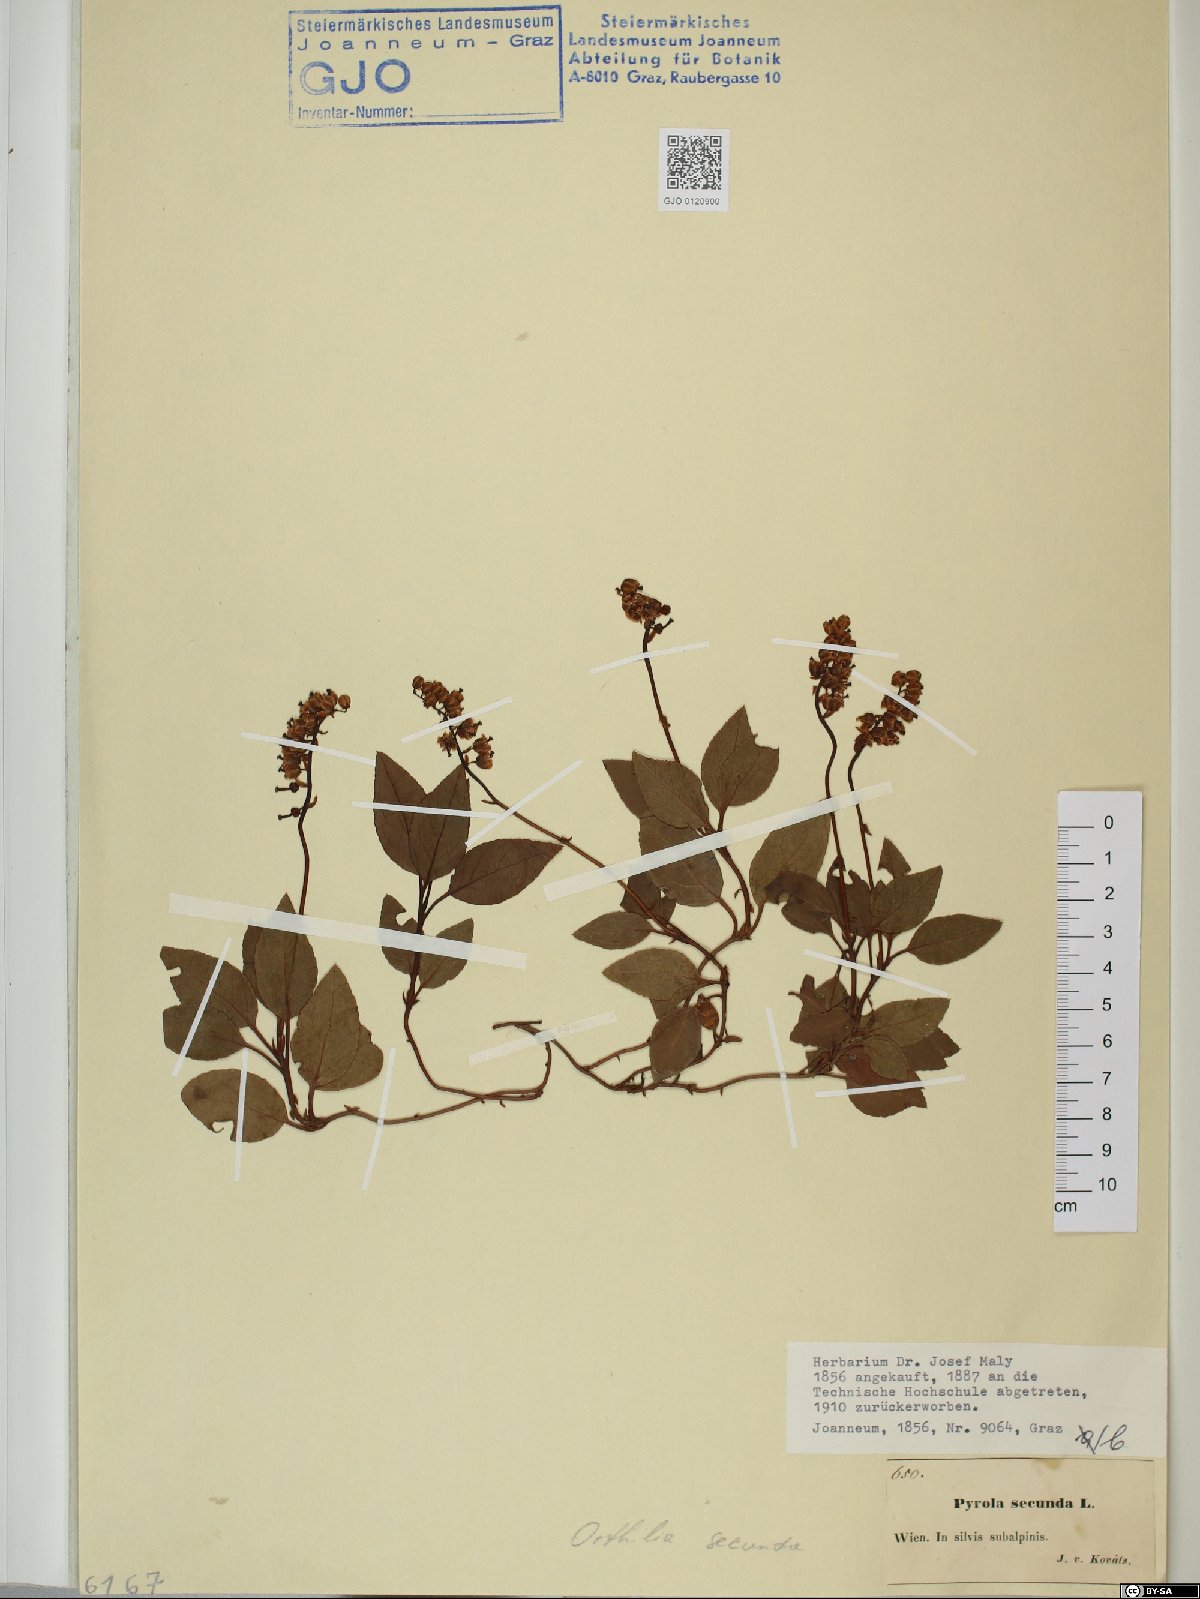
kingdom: Plantae
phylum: Tracheophyta
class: Magnoliopsida
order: Ericales
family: Ericaceae
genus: Orthilia
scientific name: Orthilia secunda
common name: One-sided orthilia
